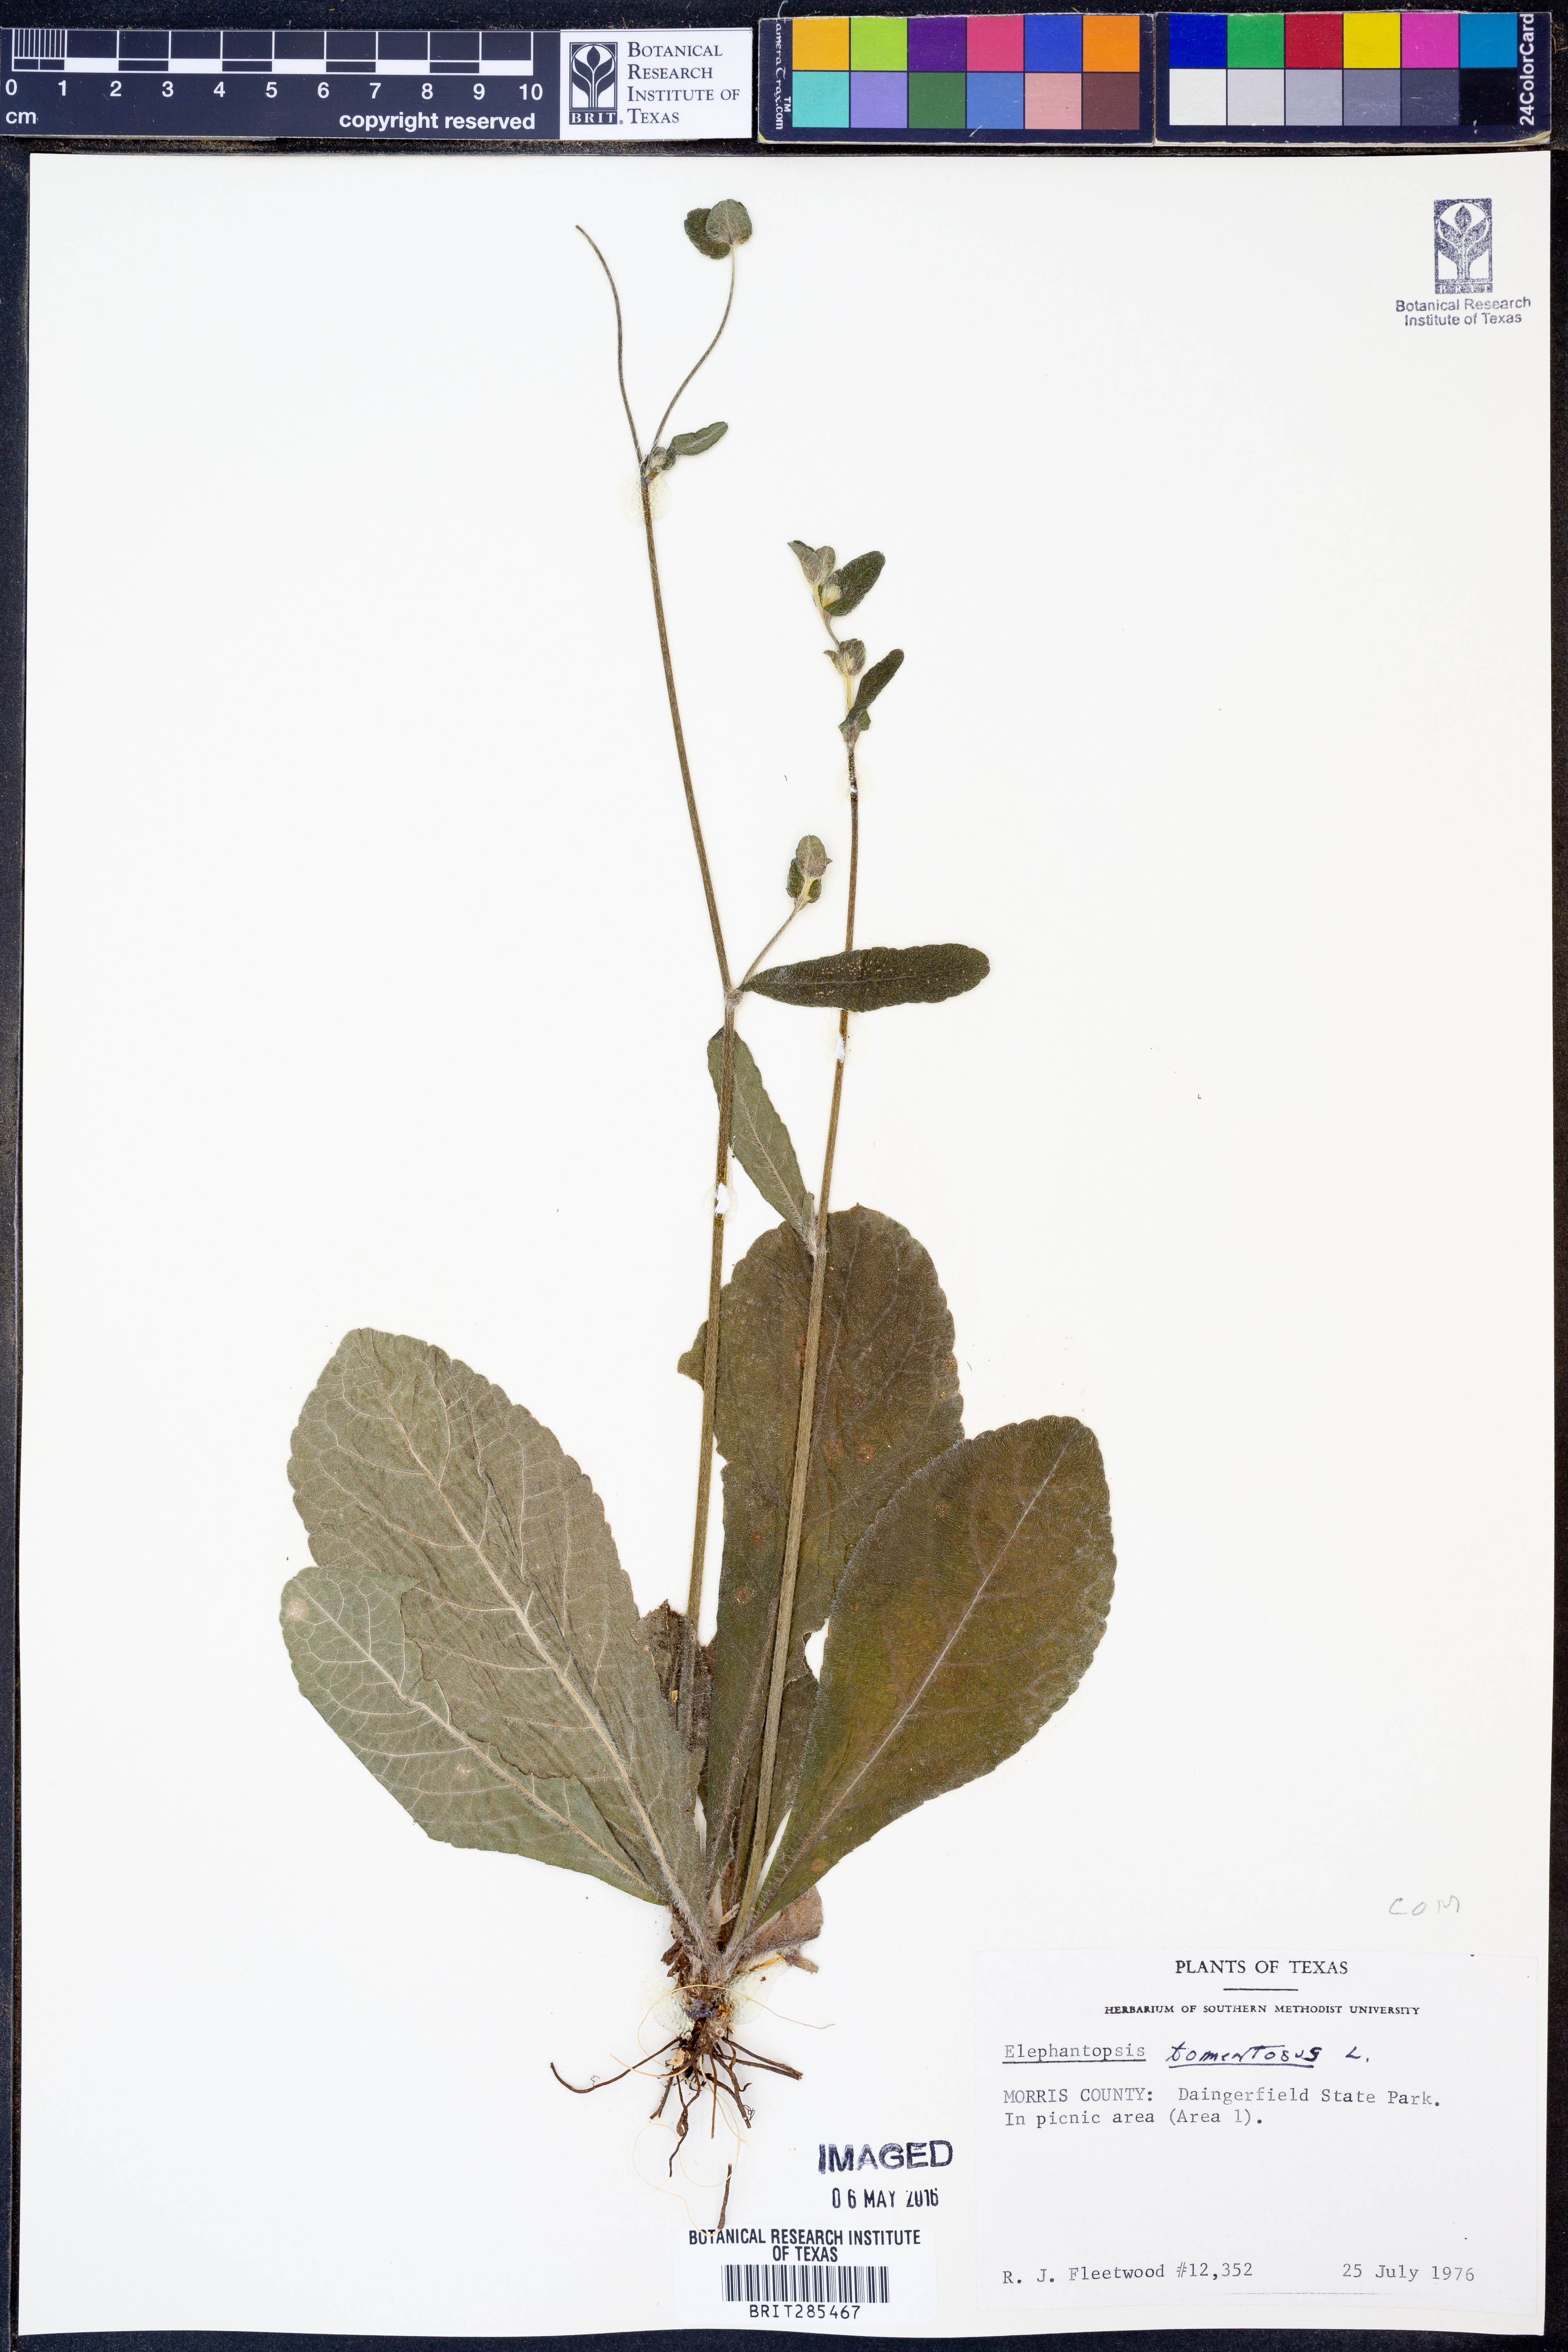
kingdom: Plantae
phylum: Tracheophyta
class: Magnoliopsida
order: Asterales
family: Asteraceae
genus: Elephantopus
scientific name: Elephantopus tomentosus
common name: Tobacco-weed
